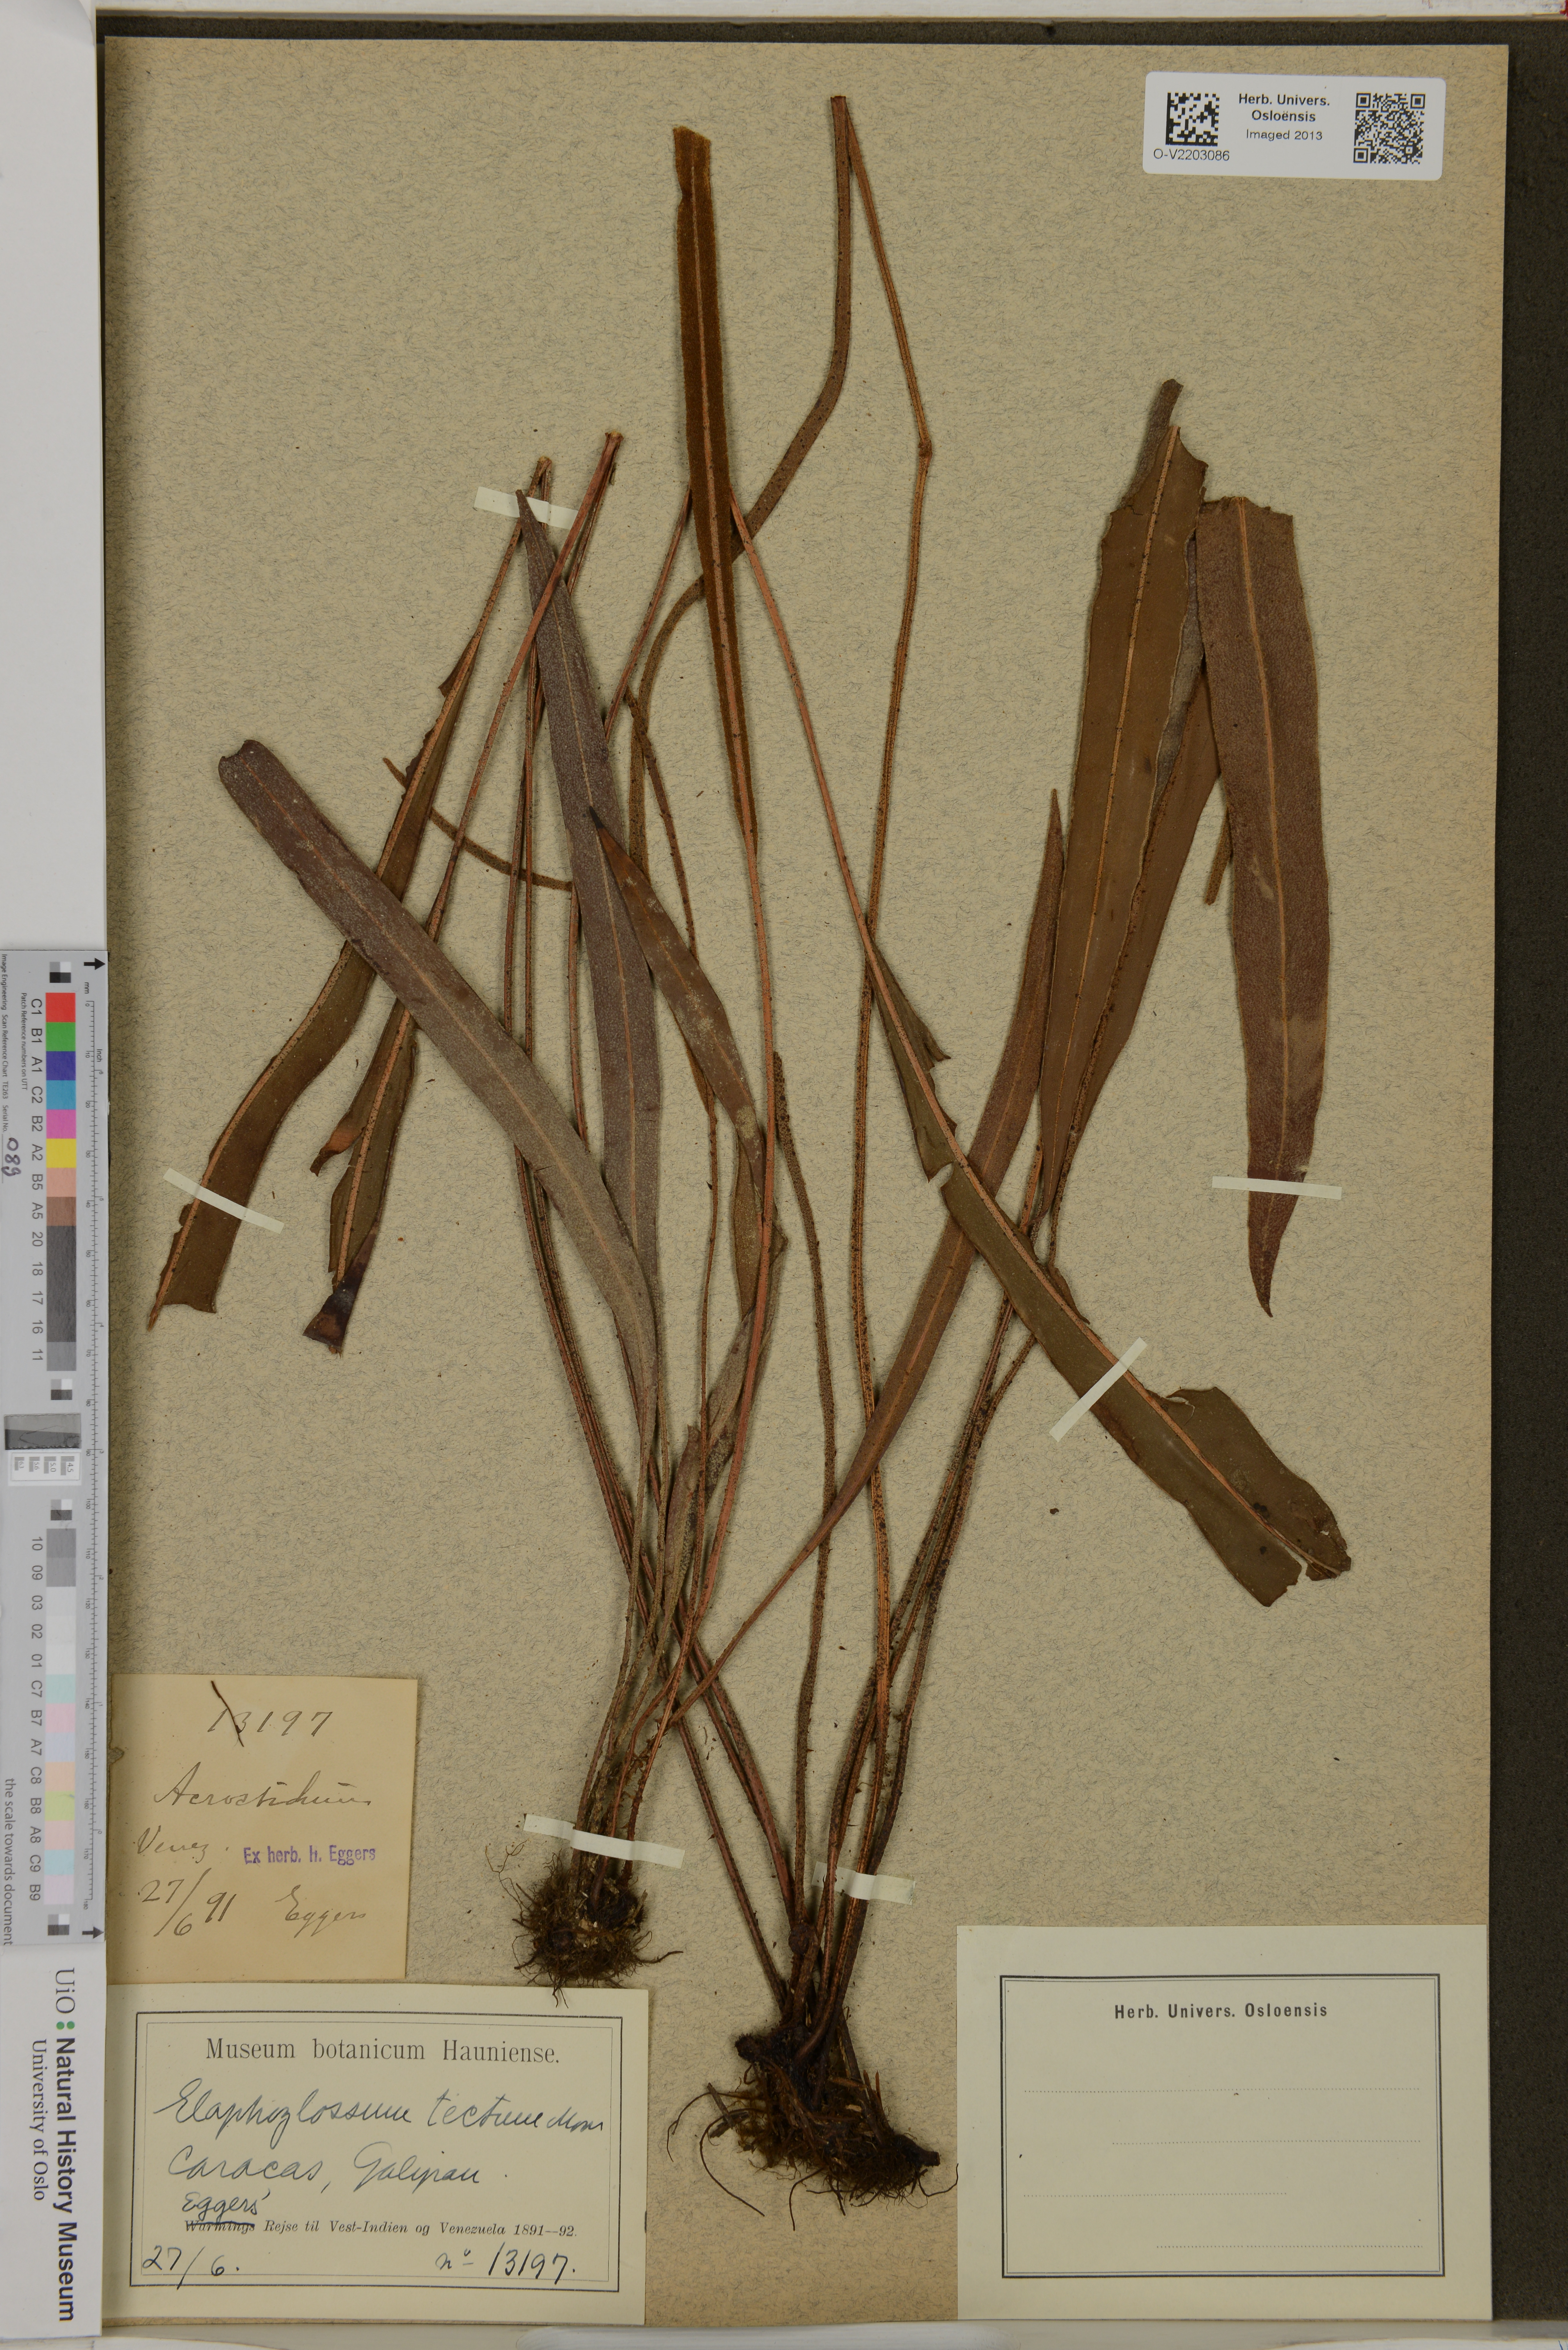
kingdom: Plantae
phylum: Tracheophyta
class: Polypodiopsida
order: Polypodiales
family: Dryopteridaceae
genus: Elaphoglossum
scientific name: Elaphoglossum tectum
